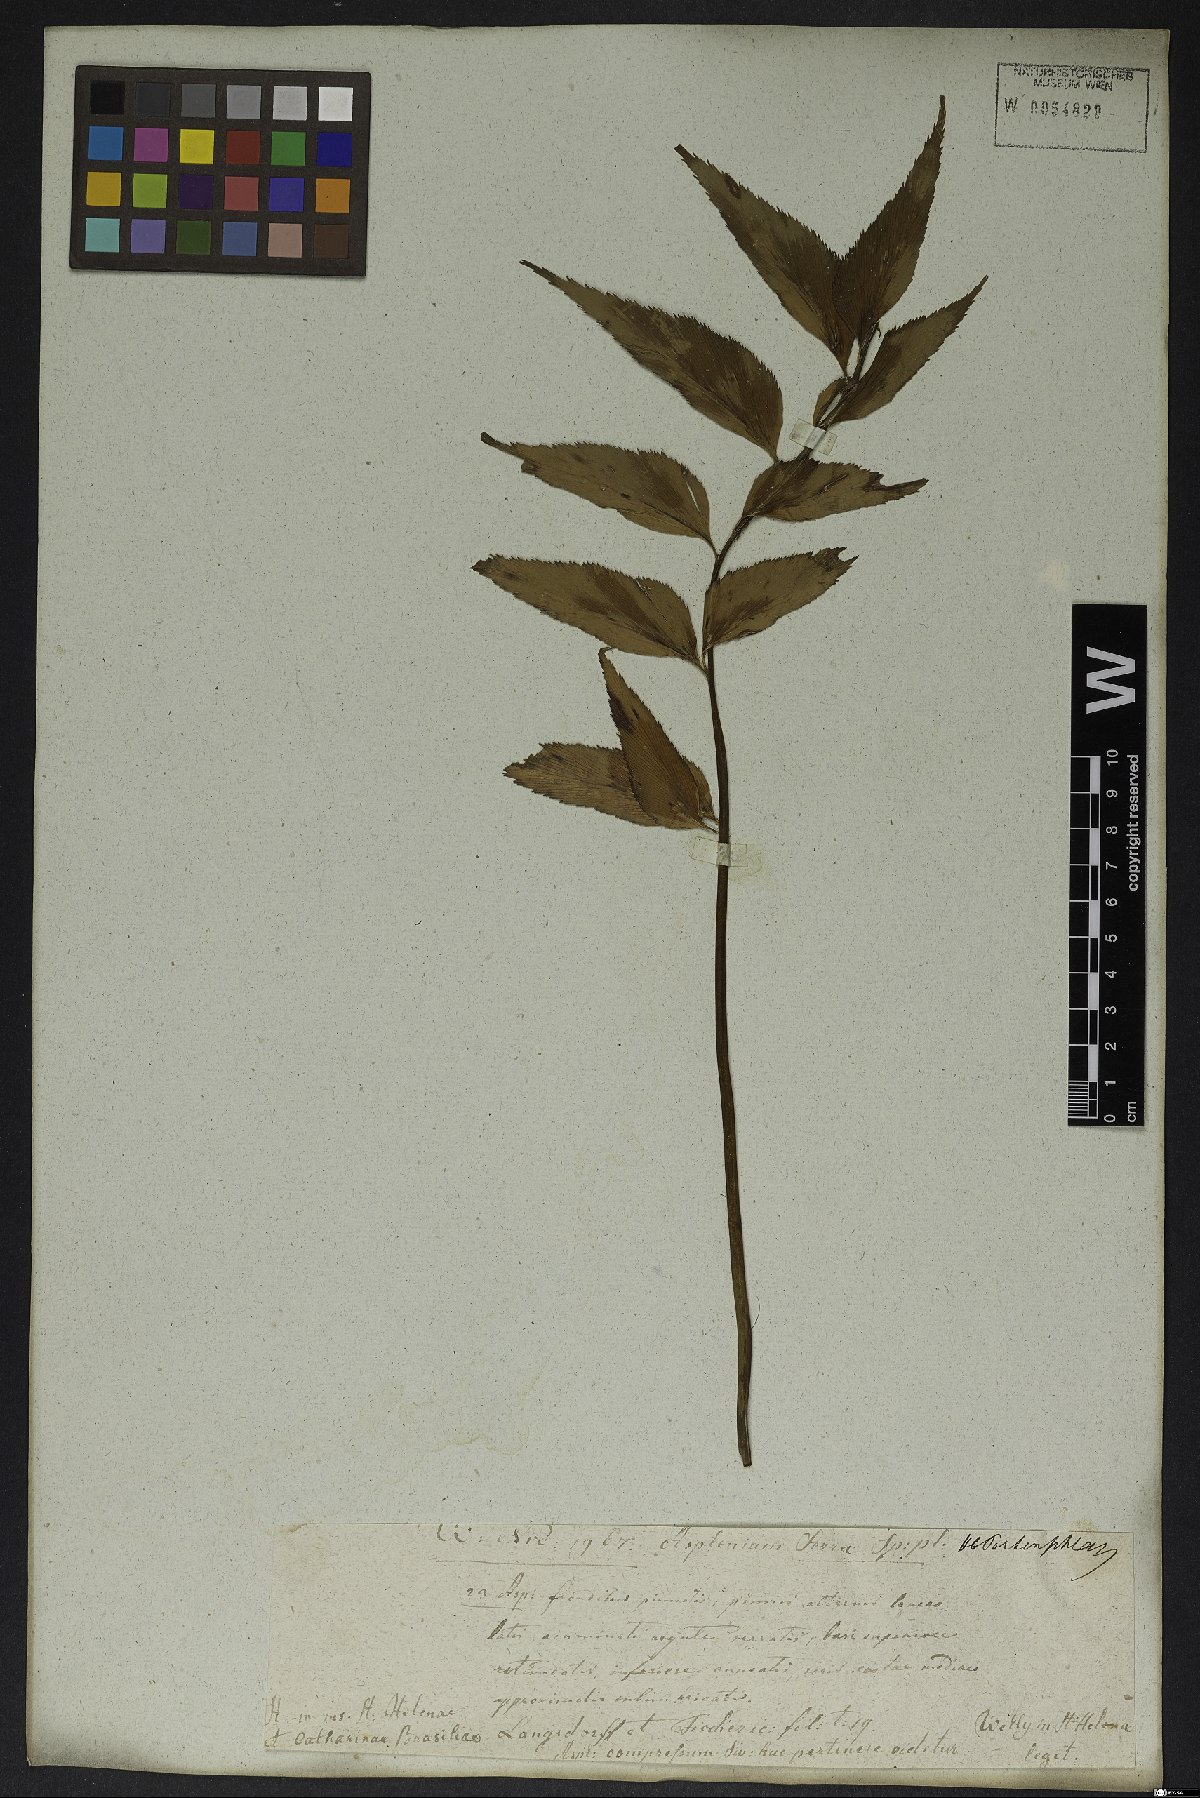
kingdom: Plantae
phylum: Tracheophyta
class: Polypodiopsida
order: Polypodiales
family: Aspleniaceae
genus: Asplenium
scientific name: Asplenium serra
